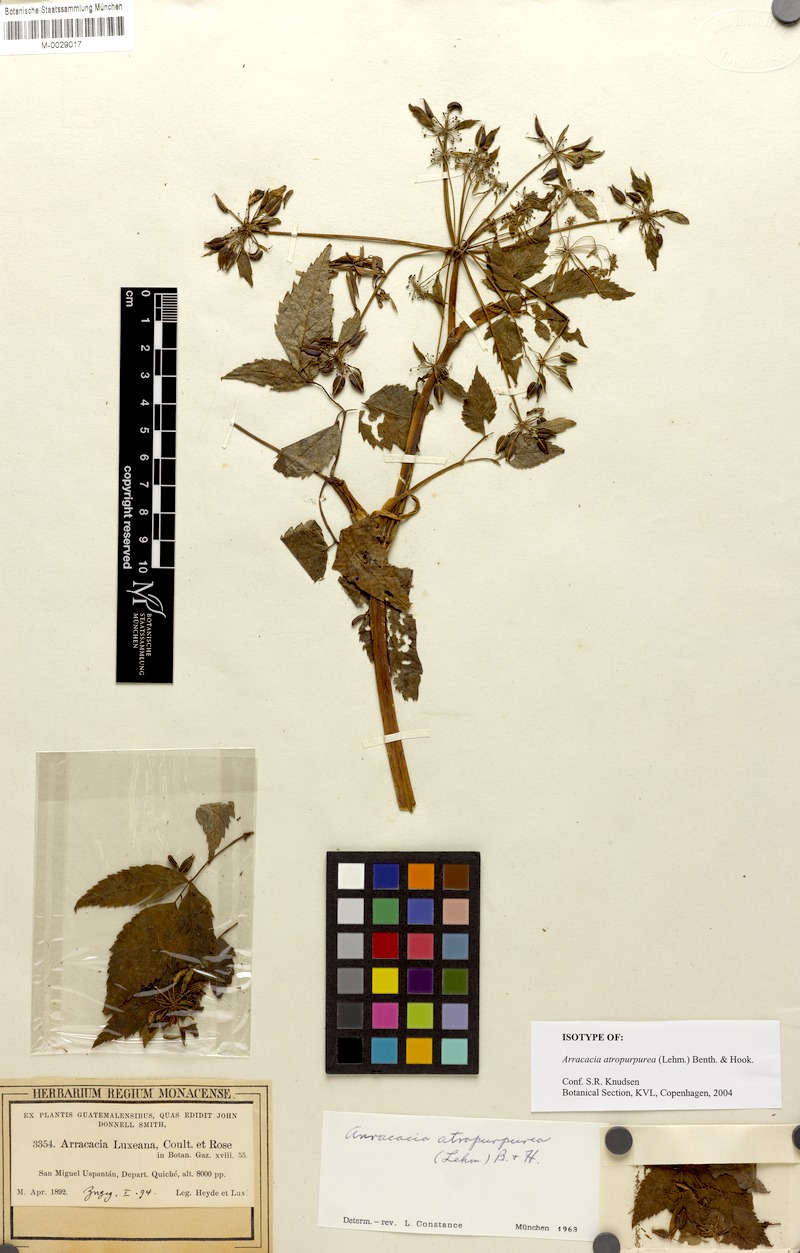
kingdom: Plantae
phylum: Tracheophyta
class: Magnoliopsida
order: Apiales
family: Apiaceae
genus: Arracacia
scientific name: Arracacia atropurpurea
